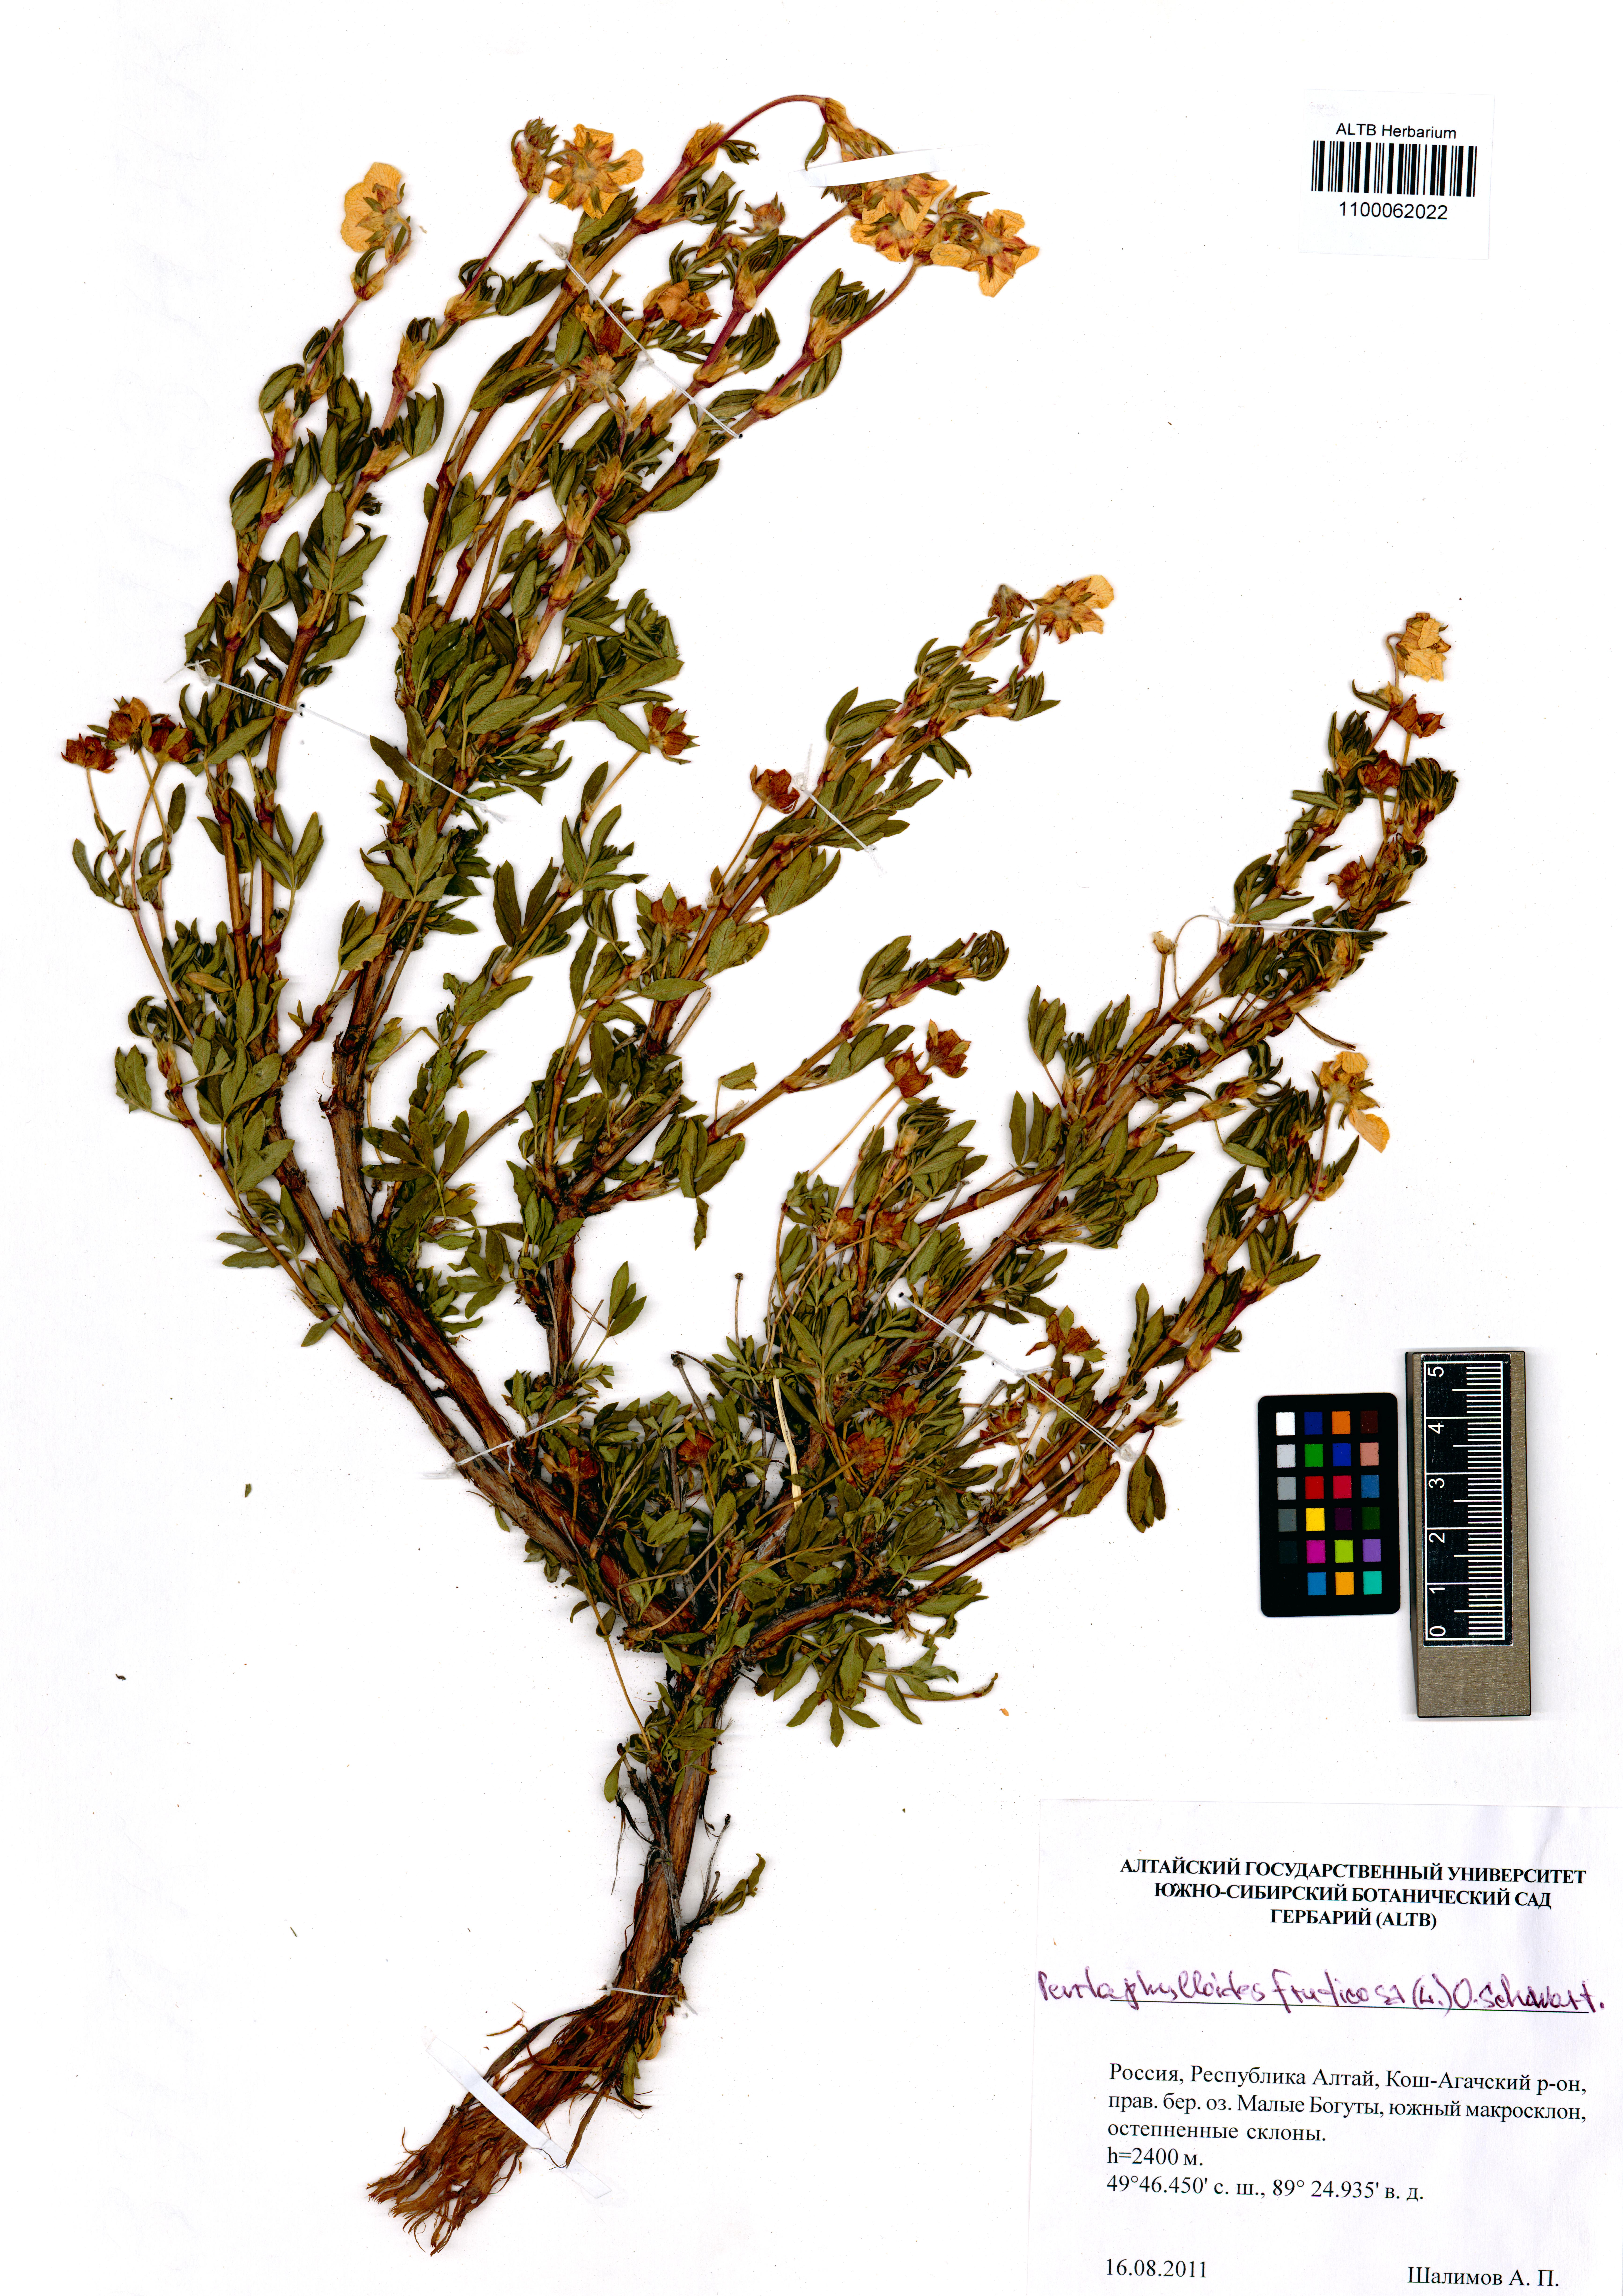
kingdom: Plantae
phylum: Tracheophyta
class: Magnoliopsida
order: Rosales
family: Rosaceae
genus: Dasiphora
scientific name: Dasiphora fruticosa
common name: Shrubby cinquefoil
